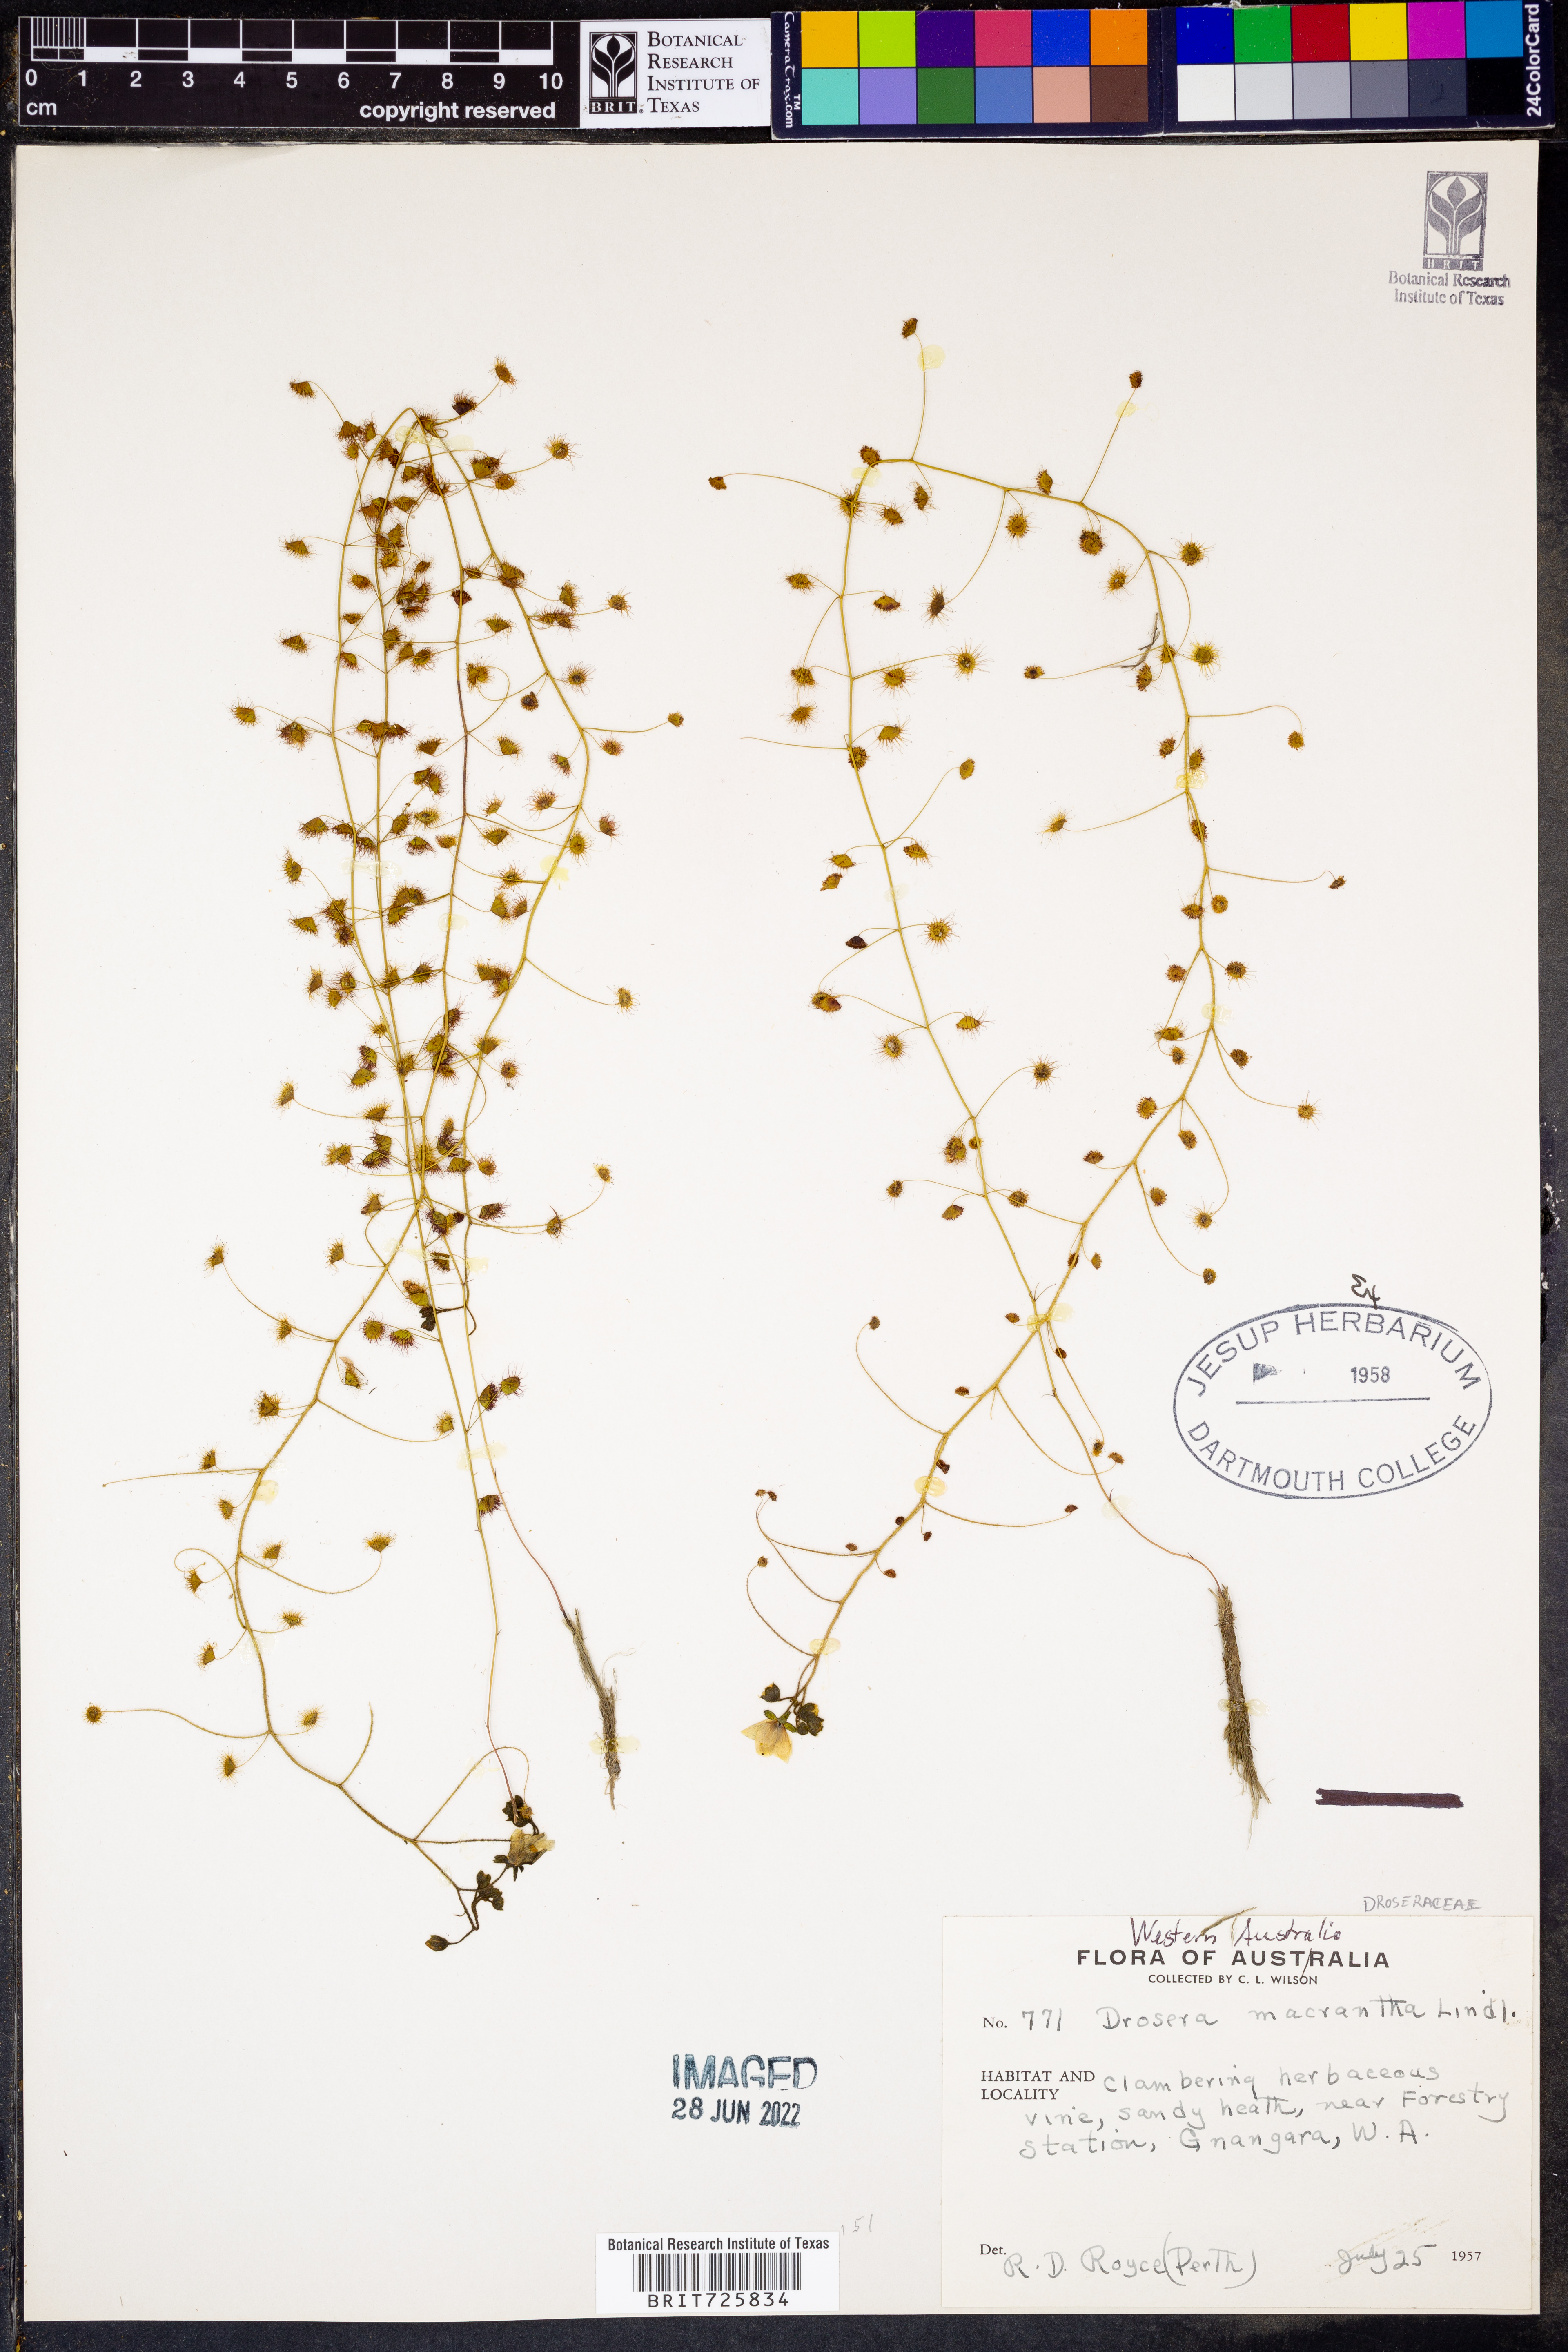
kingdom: Plantae
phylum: Tracheophyta
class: Magnoliopsida
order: Caryophyllales
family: Droseraceae
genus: Drosera
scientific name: Drosera macrantha
